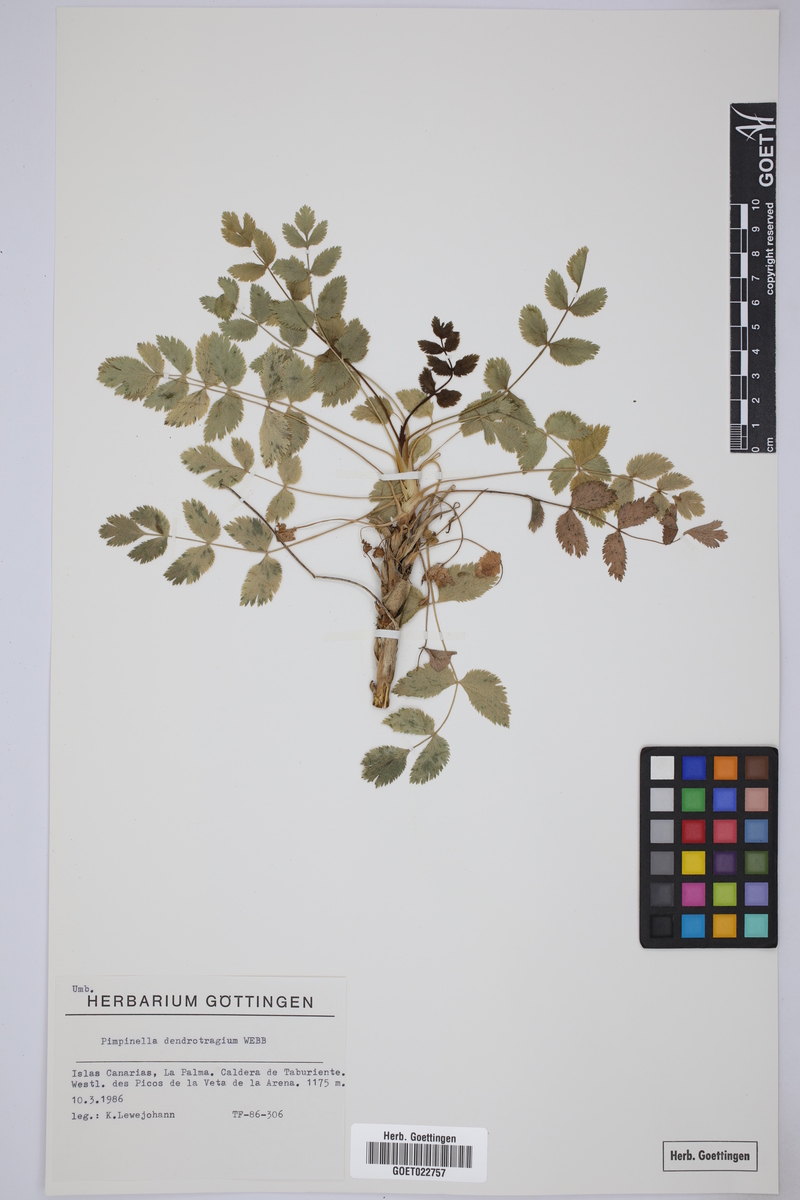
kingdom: Plantae
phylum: Tracheophyta
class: Magnoliopsida
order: Apiales
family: Apiaceae
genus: Pimpinella
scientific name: Pimpinella dendroselinum
